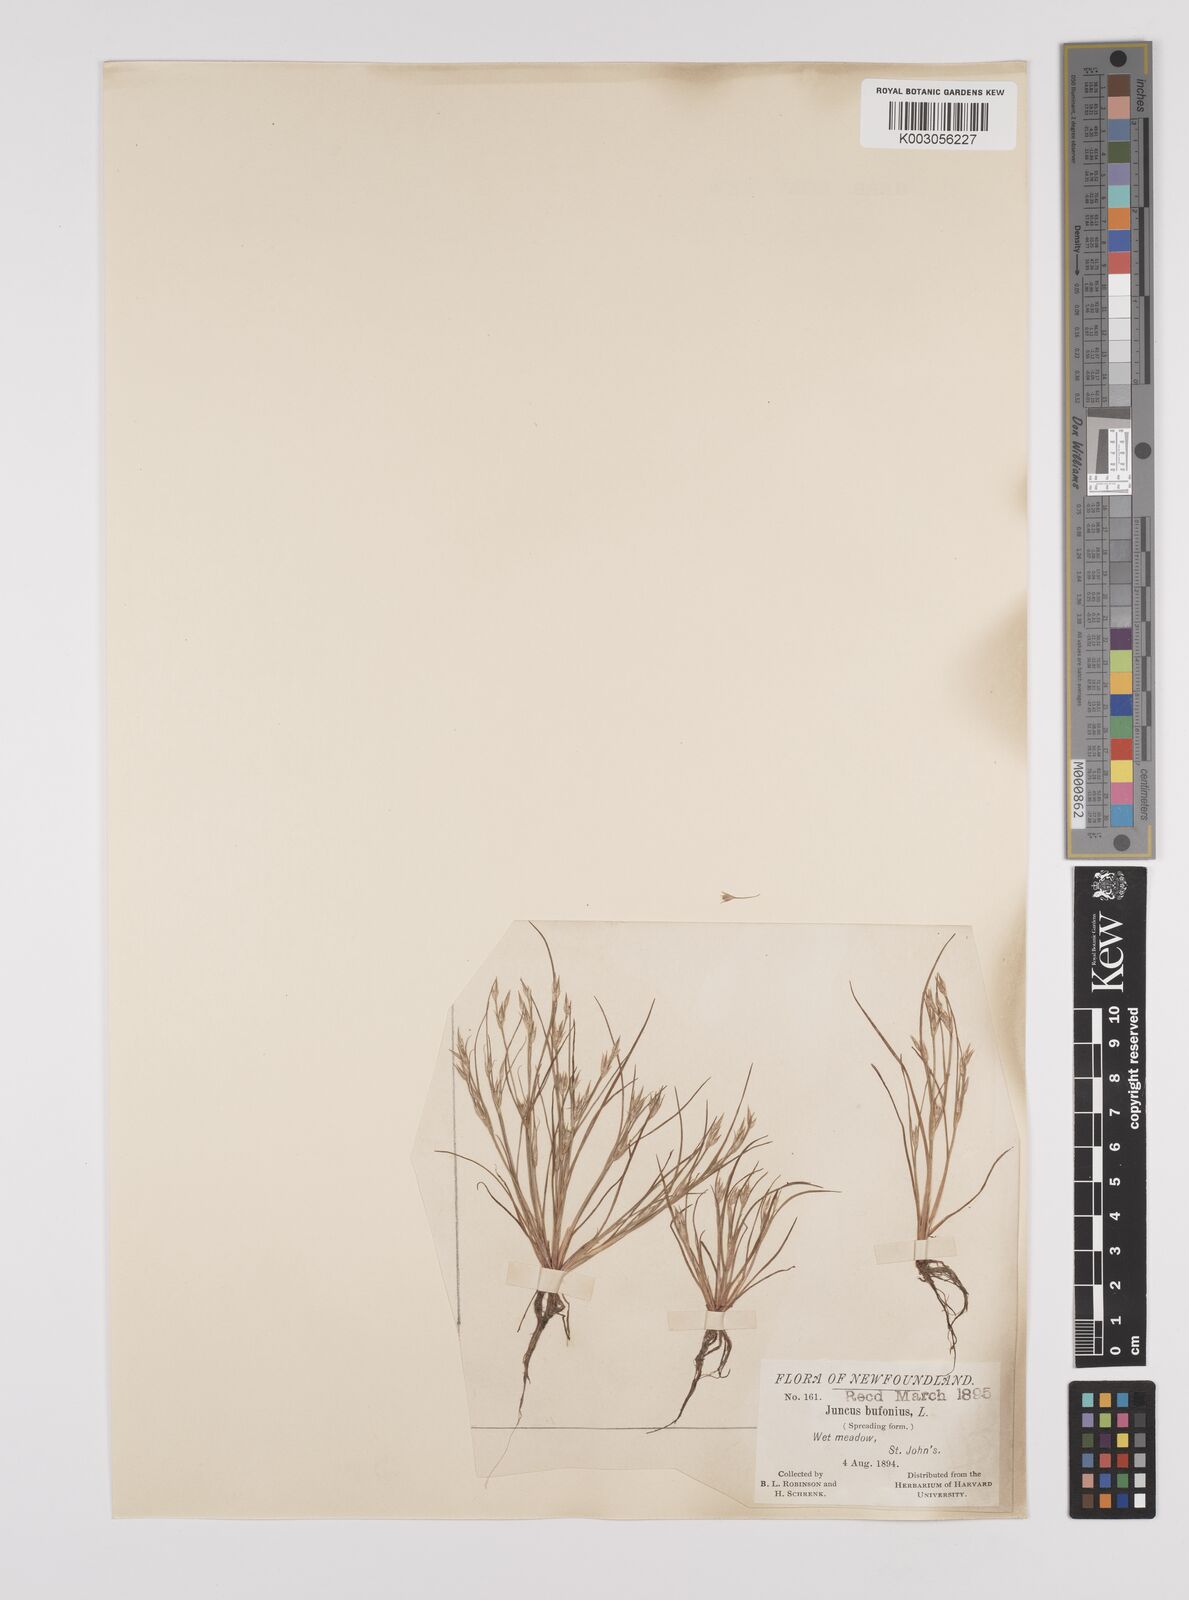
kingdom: Plantae
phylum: Tracheophyta
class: Liliopsida
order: Poales
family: Juncaceae
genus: Juncus
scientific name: Juncus bufonius
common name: Toad rush
